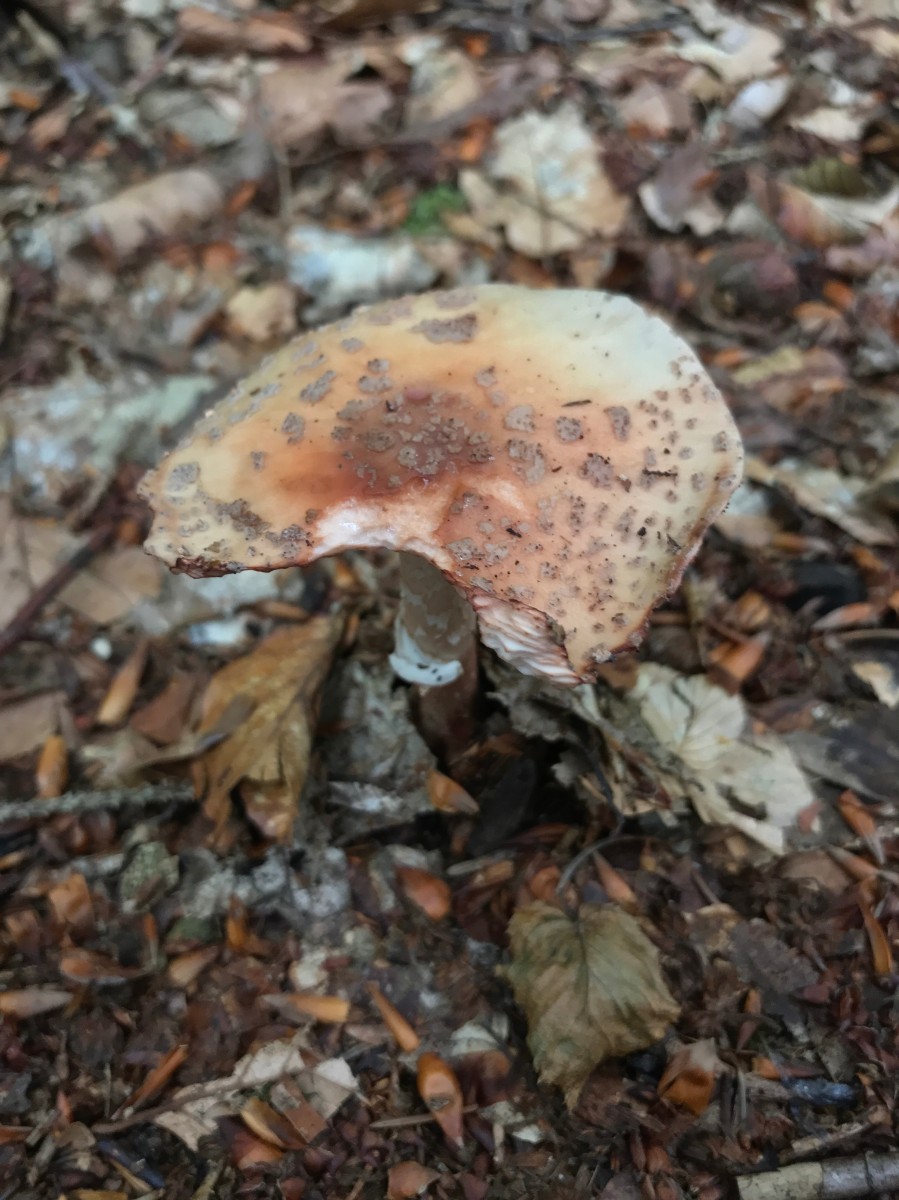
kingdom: Fungi
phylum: Basidiomycota
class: Agaricomycetes
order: Agaricales
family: Amanitaceae
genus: Amanita
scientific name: Amanita rubescens
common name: rødmende fluesvamp
